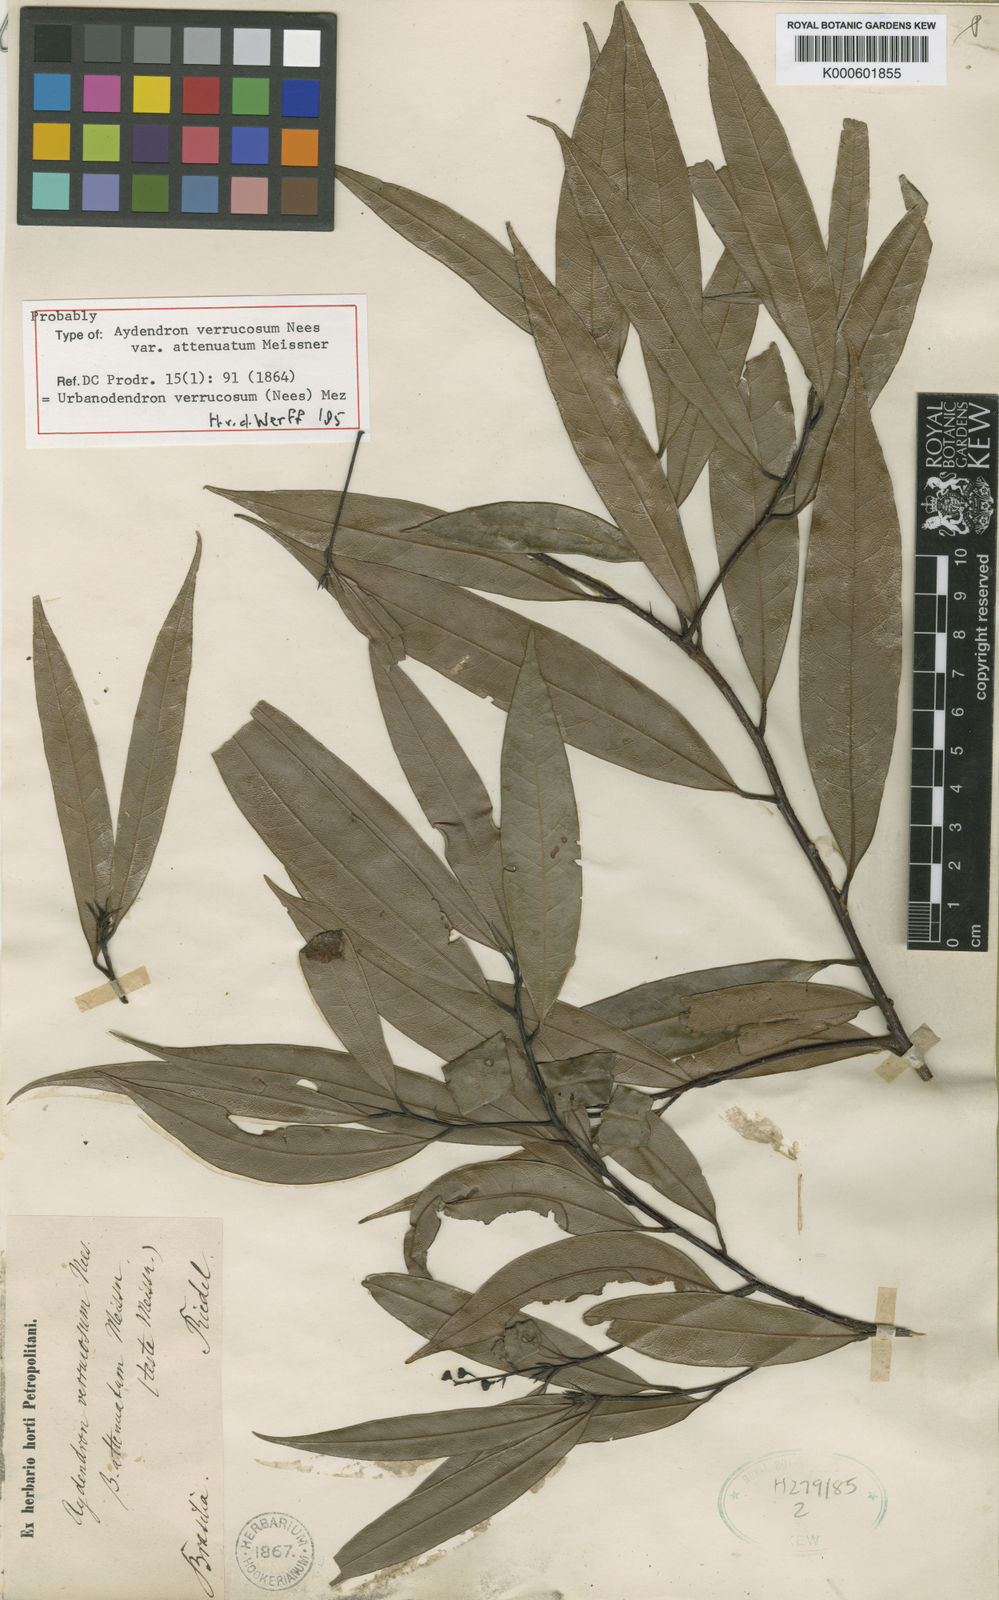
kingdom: Plantae
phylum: Tracheophyta
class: Magnoliopsida
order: Laurales
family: Lauraceae
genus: Urbanodendron
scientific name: Urbanodendron verrucosum
